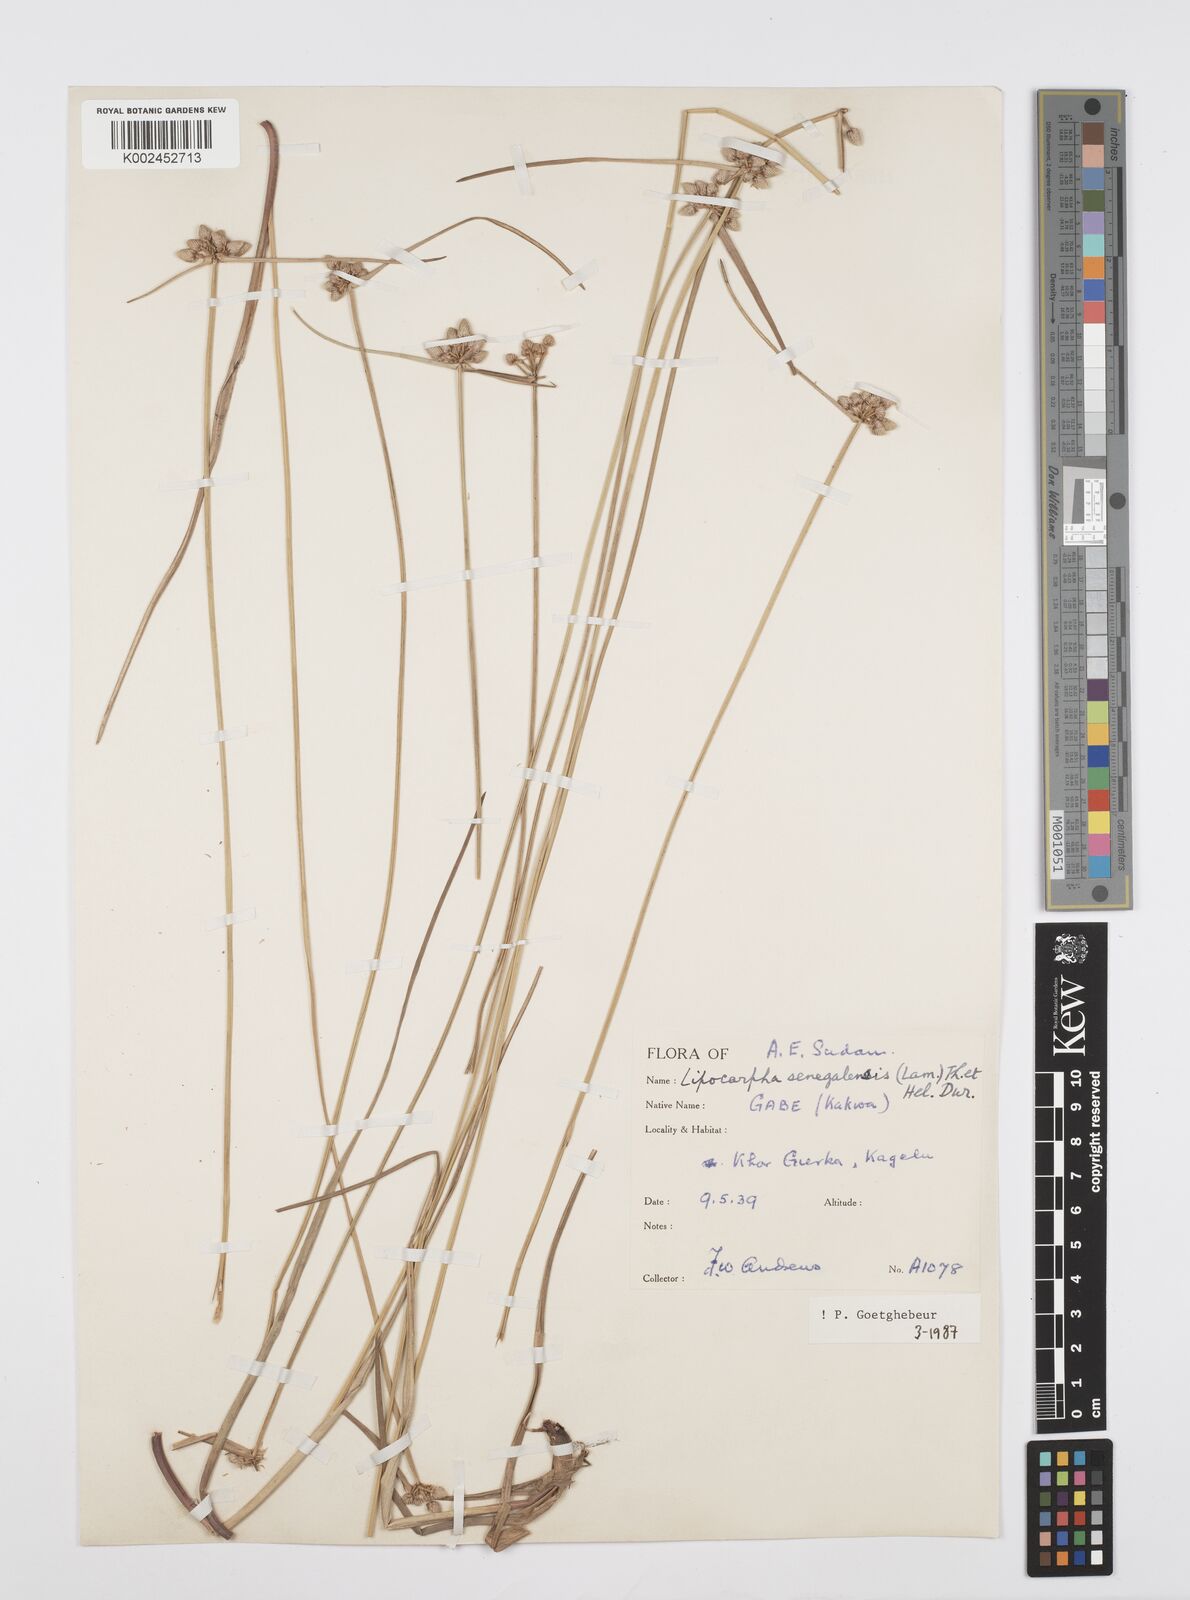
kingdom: Plantae
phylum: Tracheophyta
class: Liliopsida
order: Poales
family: Cyperaceae
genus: Cyperus
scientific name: Cyperus albescens
